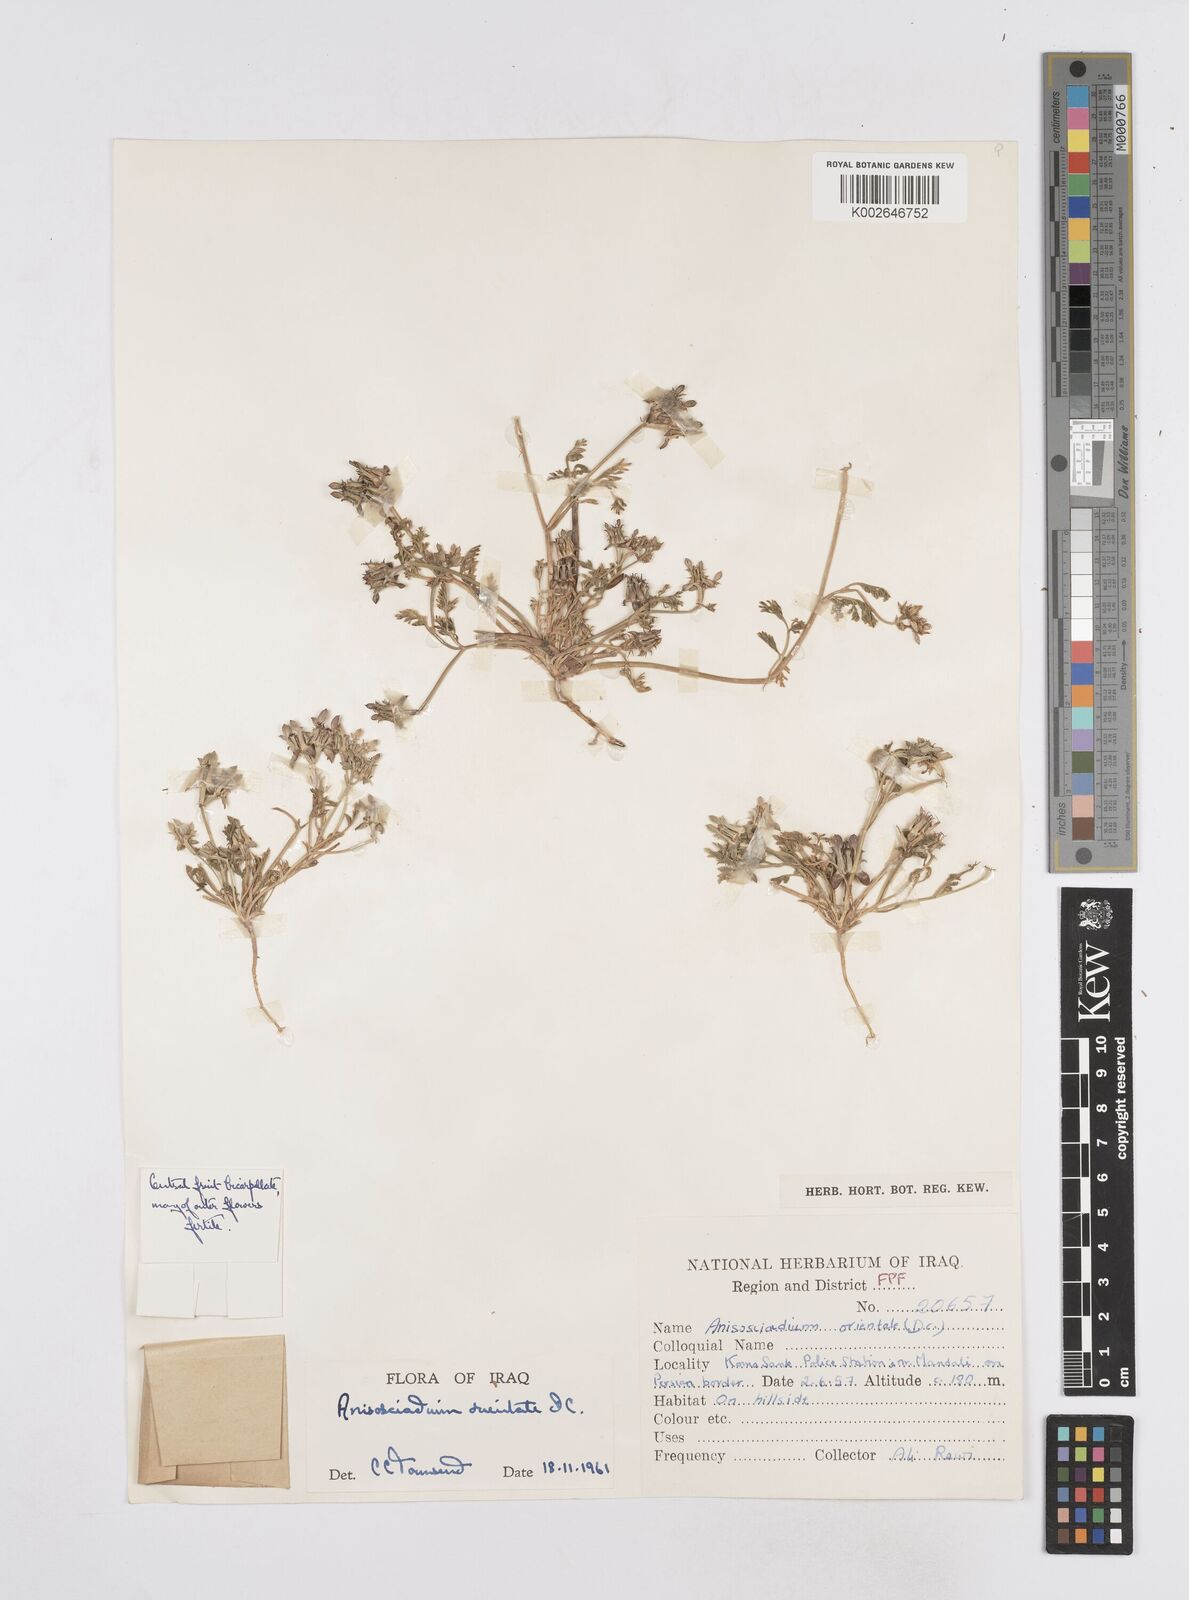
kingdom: Plantae
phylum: Tracheophyta
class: Magnoliopsida
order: Apiales
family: Apiaceae
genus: Anisosciadium
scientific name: Anisosciadium orientale
